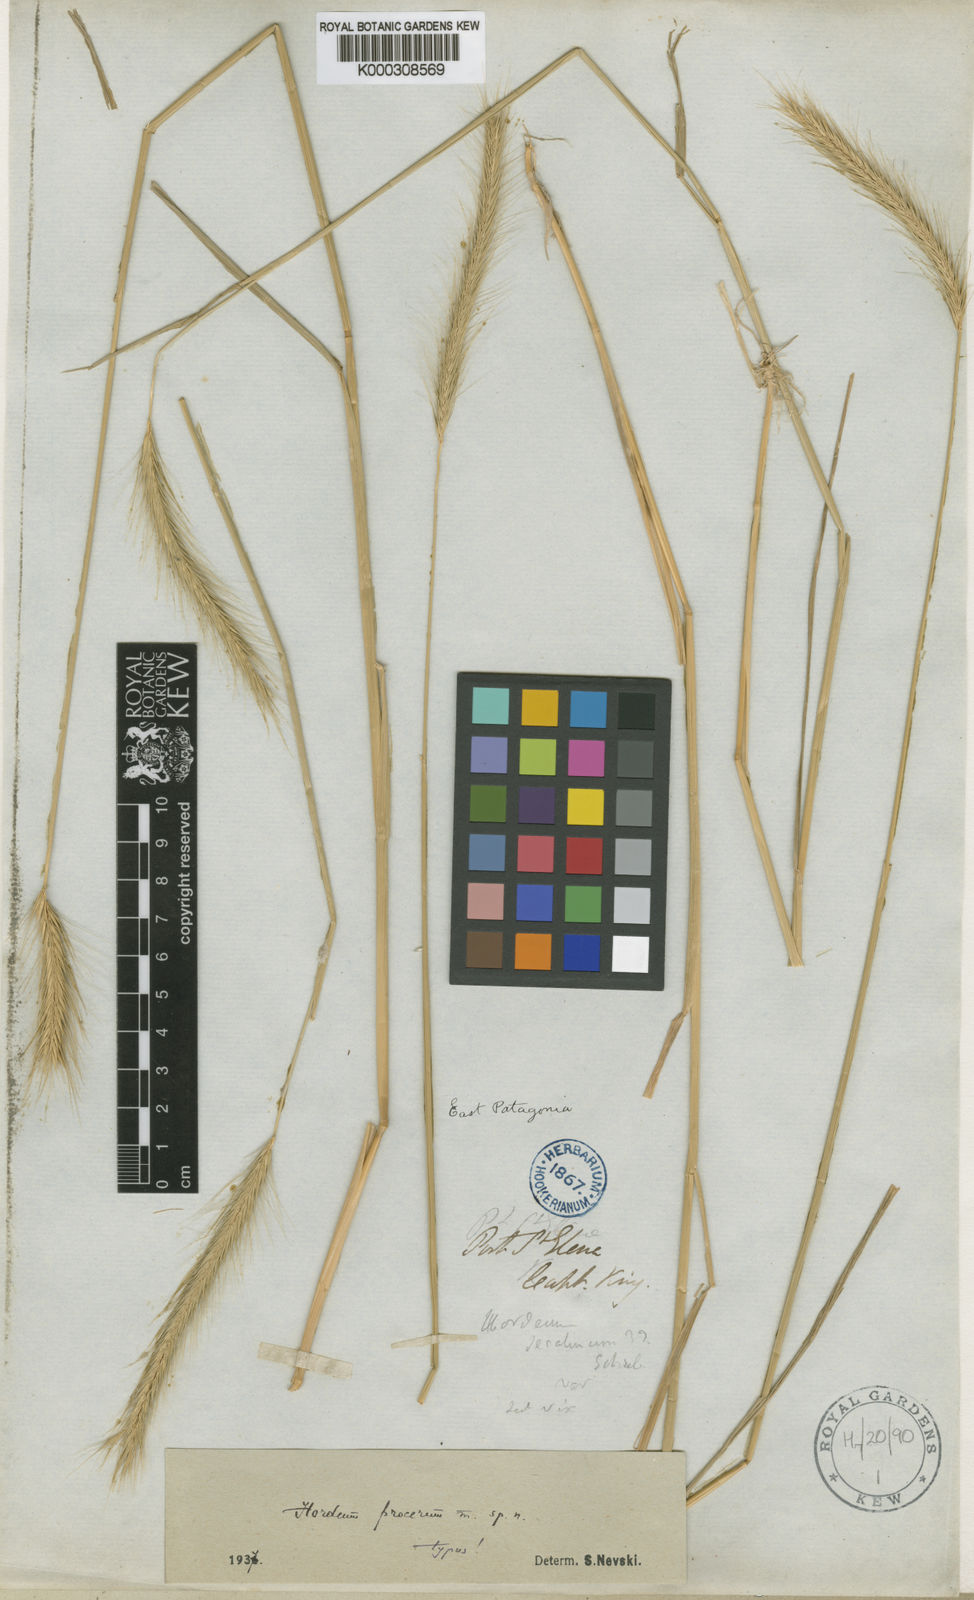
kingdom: Plantae
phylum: Tracheophyta
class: Liliopsida
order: Poales
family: Poaceae
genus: Hordeum
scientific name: Hordeum procerum
